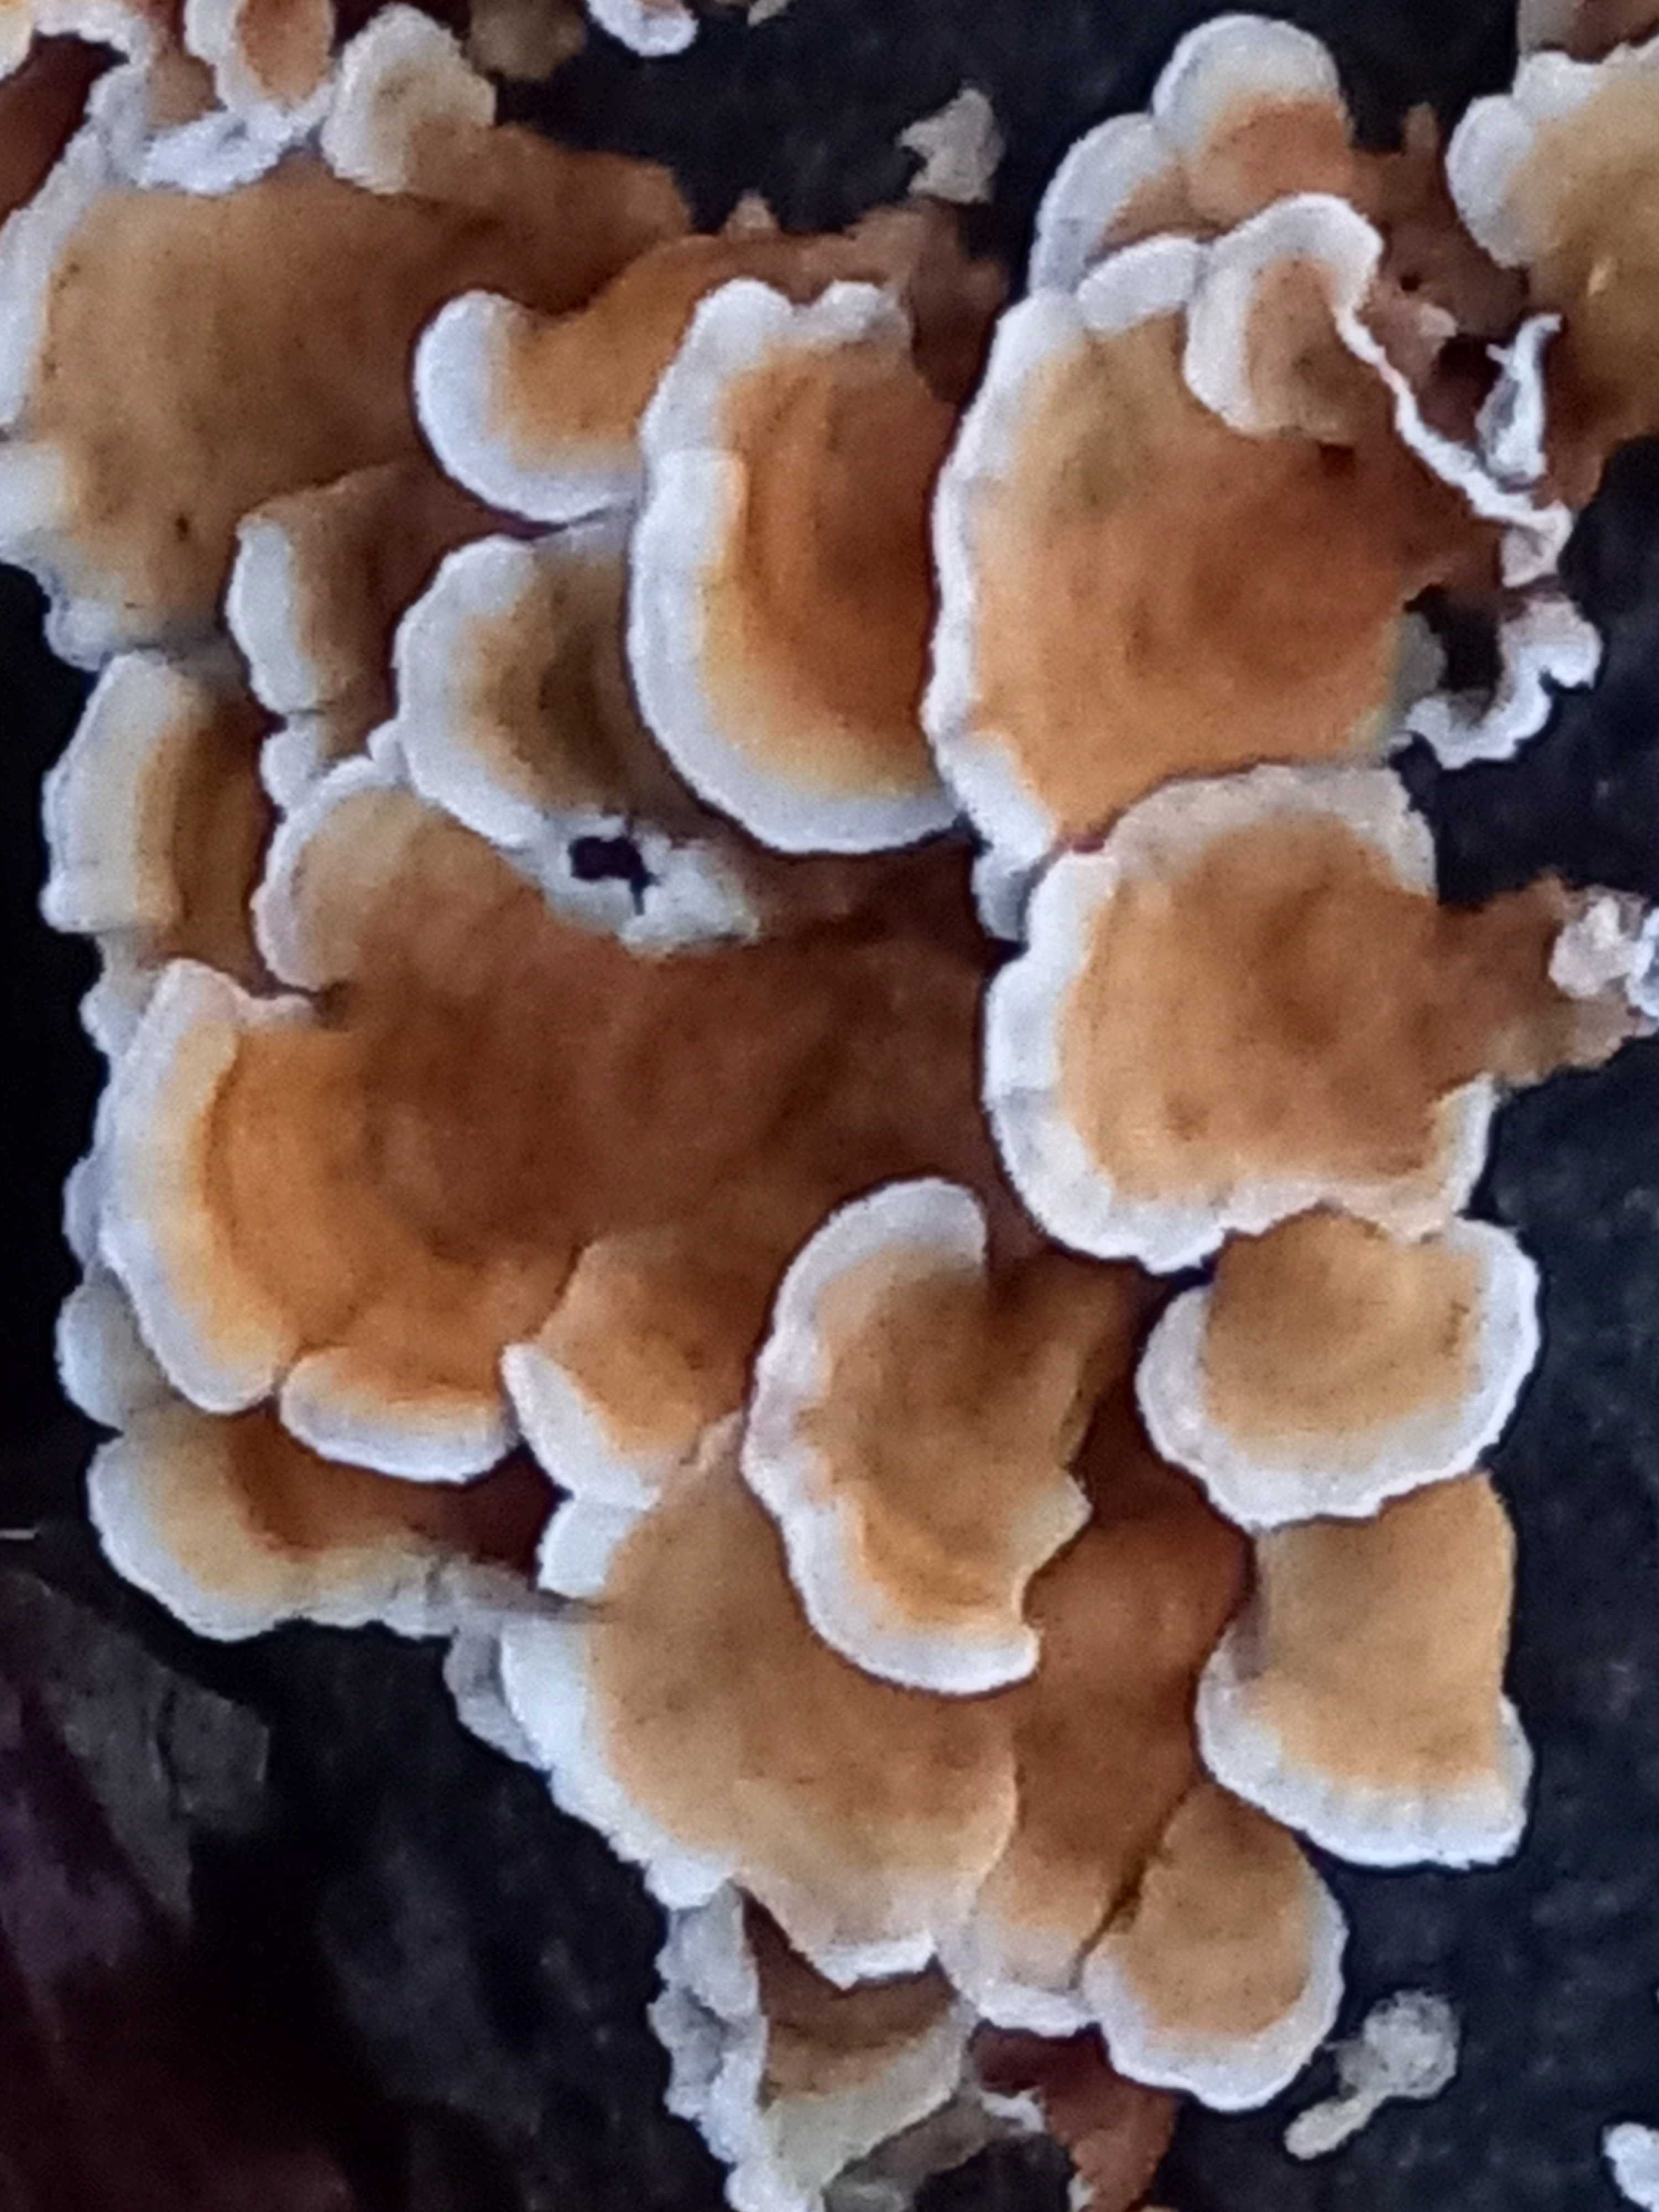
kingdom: Fungi
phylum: Basidiomycota
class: Agaricomycetes
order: Amylocorticiales
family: Amylocorticiaceae
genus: Plicaturopsis
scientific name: Plicaturopsis crispa
